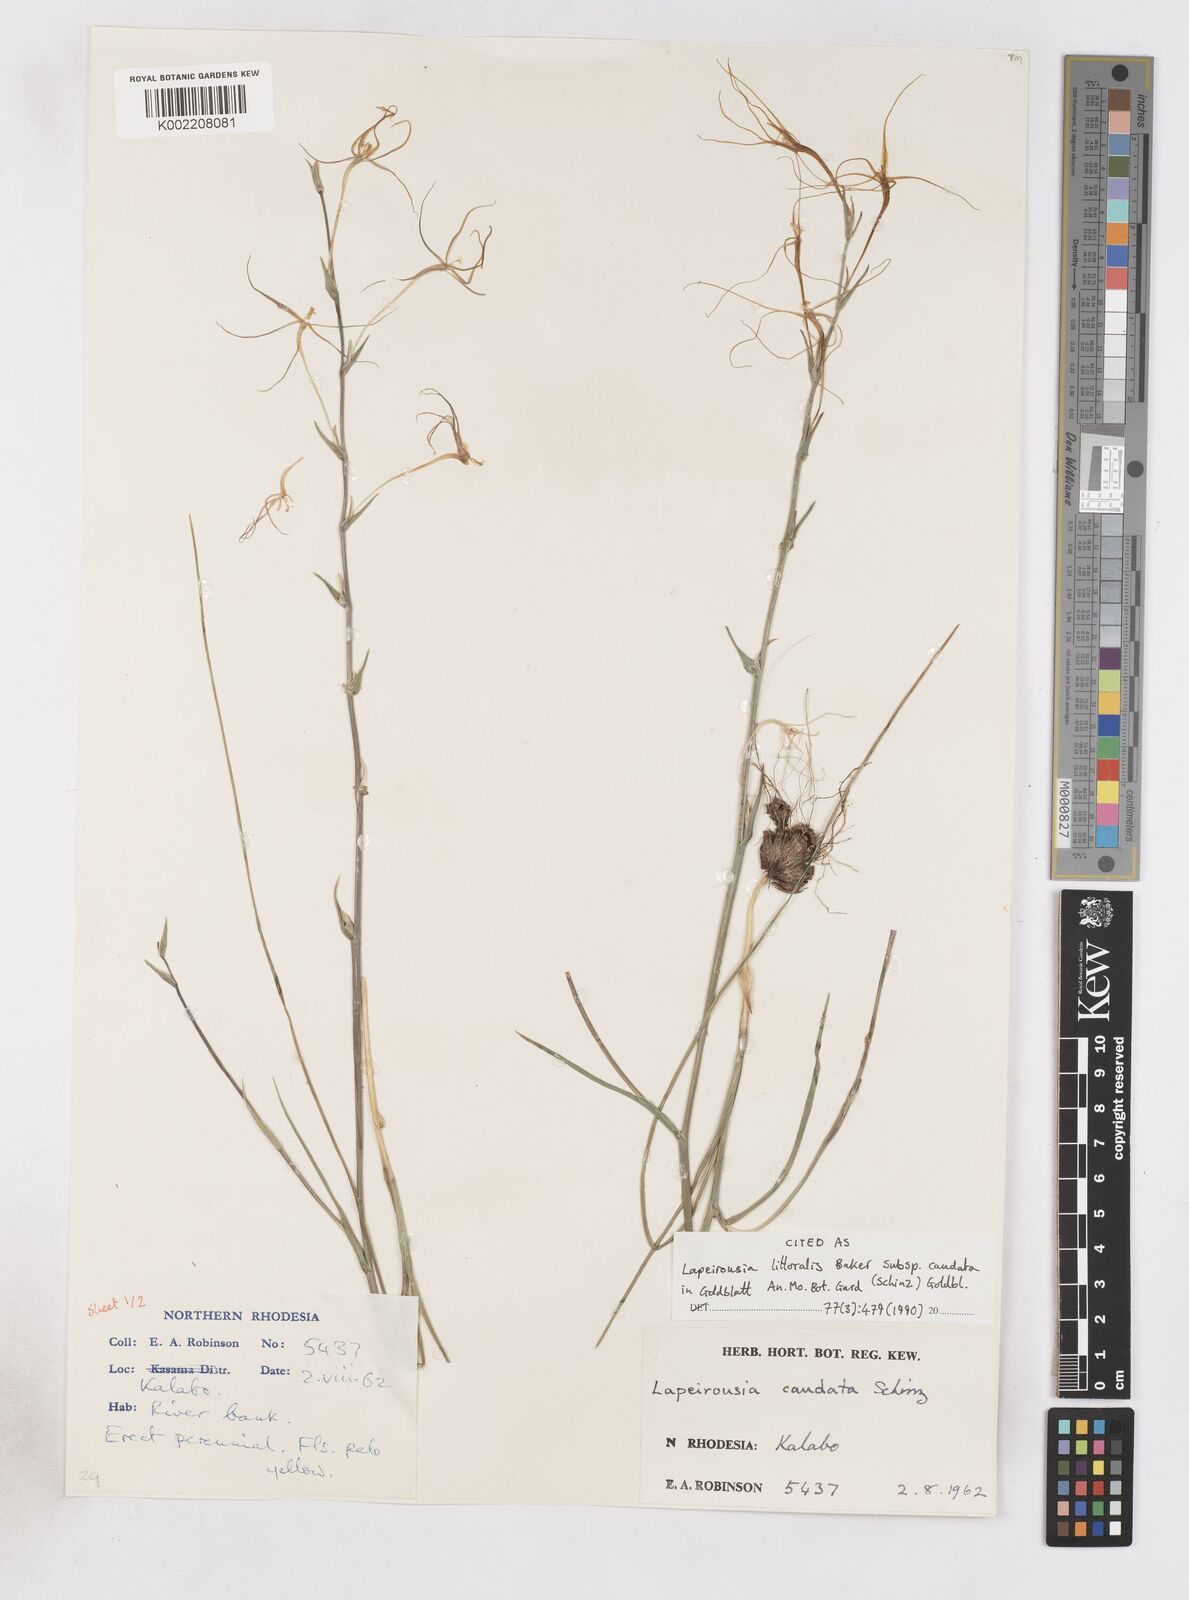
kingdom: Plantae
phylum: Tracheophyta
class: Liliopsida
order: Asparagales
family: Iridaceae
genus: Lapeirousia
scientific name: Lapeirousia caudata
